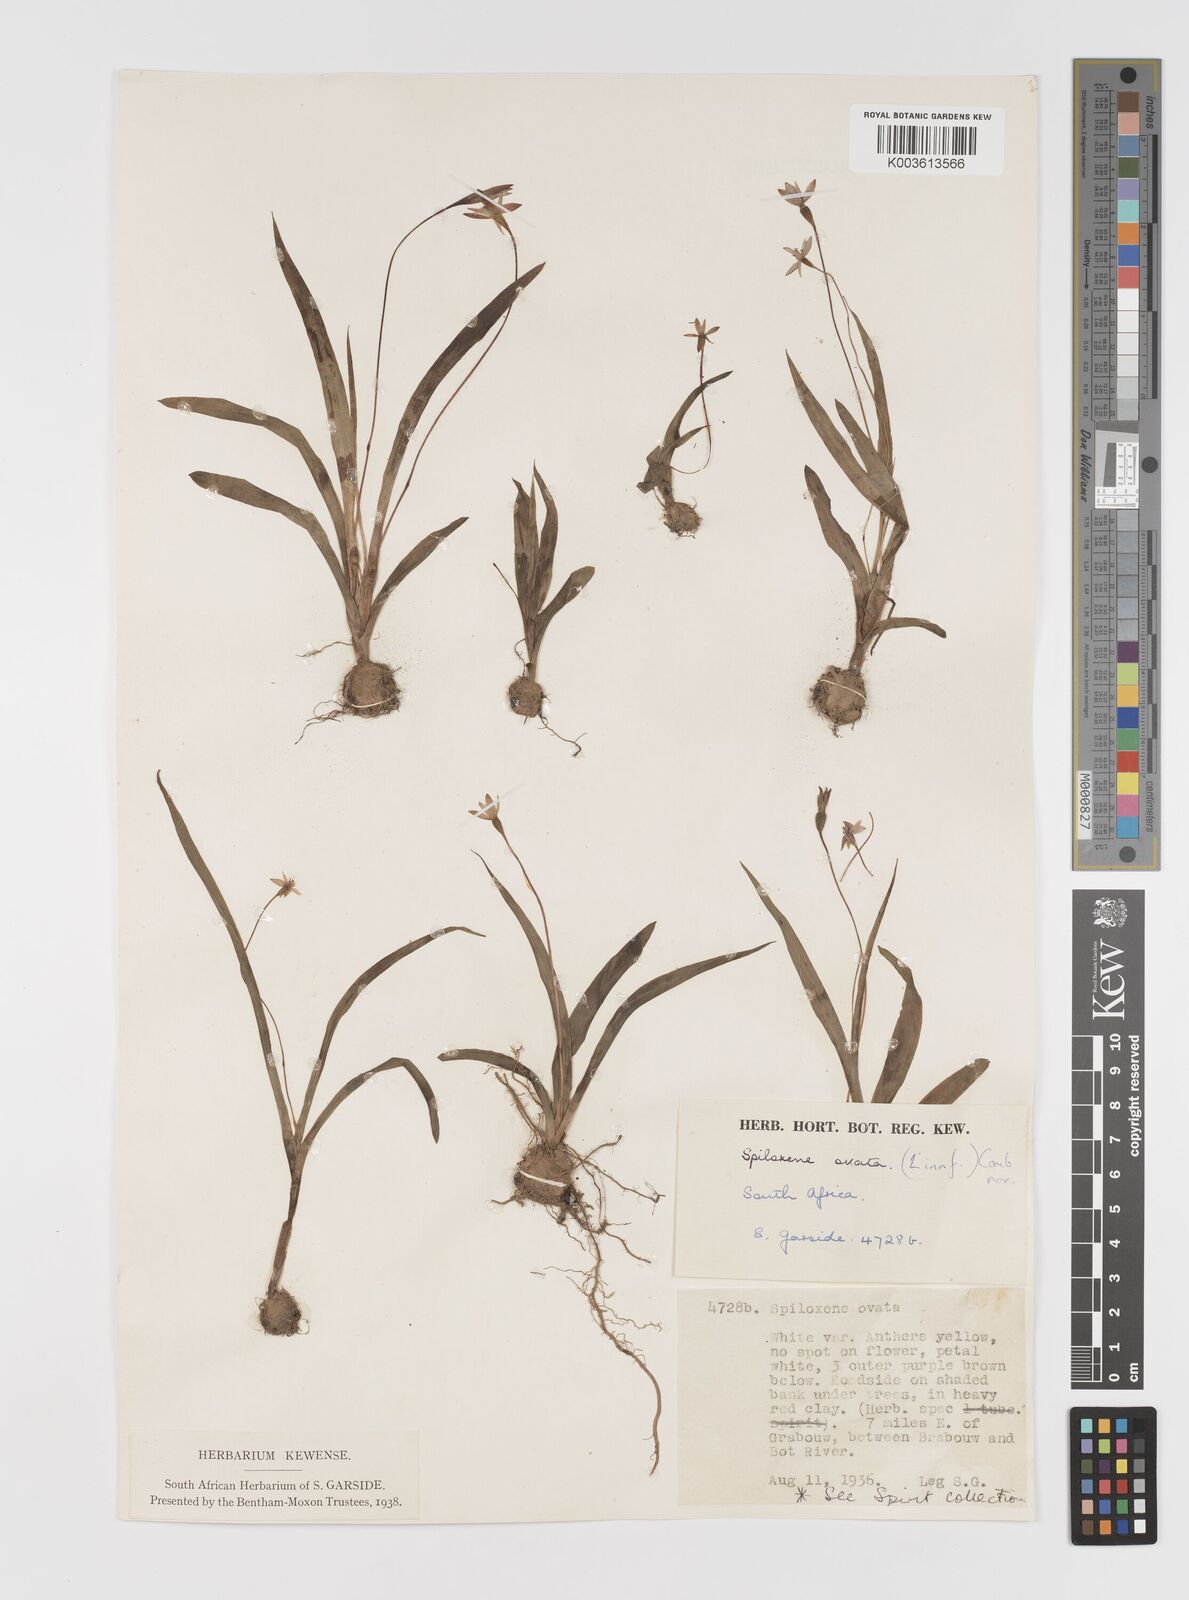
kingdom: Plantae
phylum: Tracheophyta
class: Liliopsida
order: Asparagales
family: Hypoxidaceae
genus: Pauridia
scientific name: Pauridia ovata
